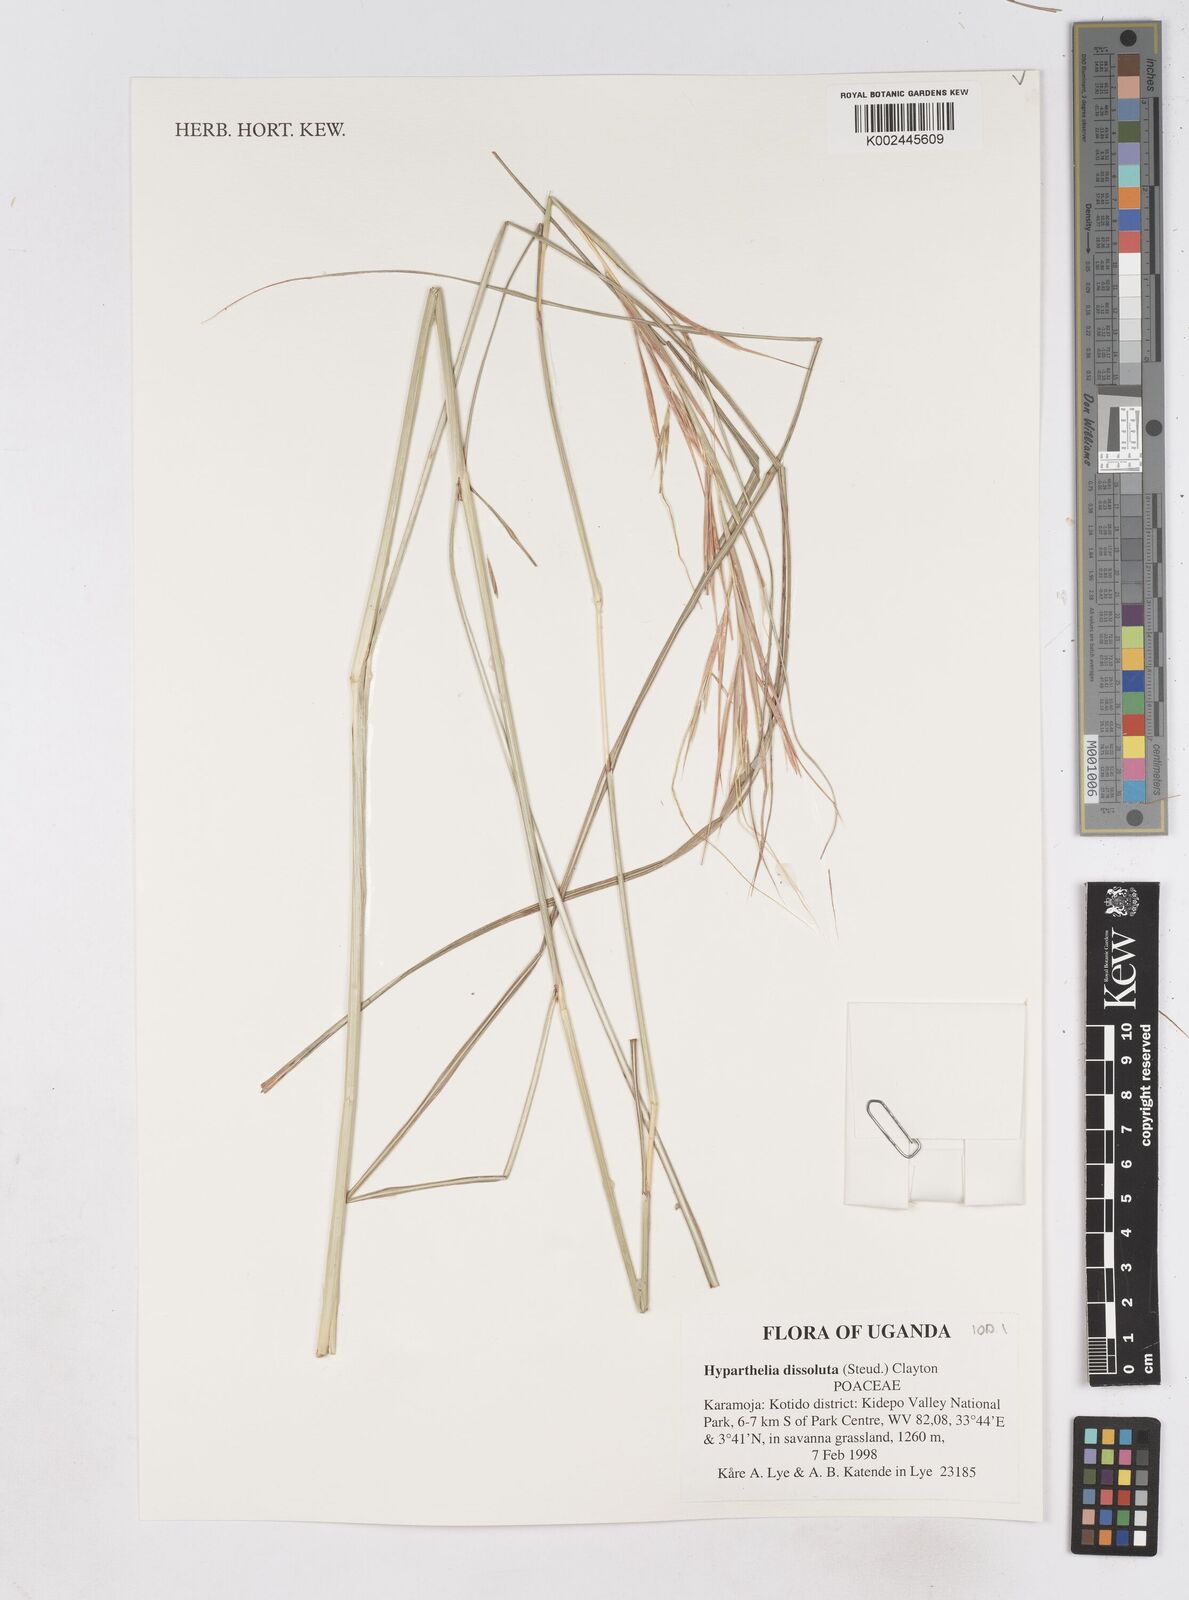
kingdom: Plantae
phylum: Tracheophyta
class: Liliopsida
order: Poales
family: Poaceae
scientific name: Poaceae
